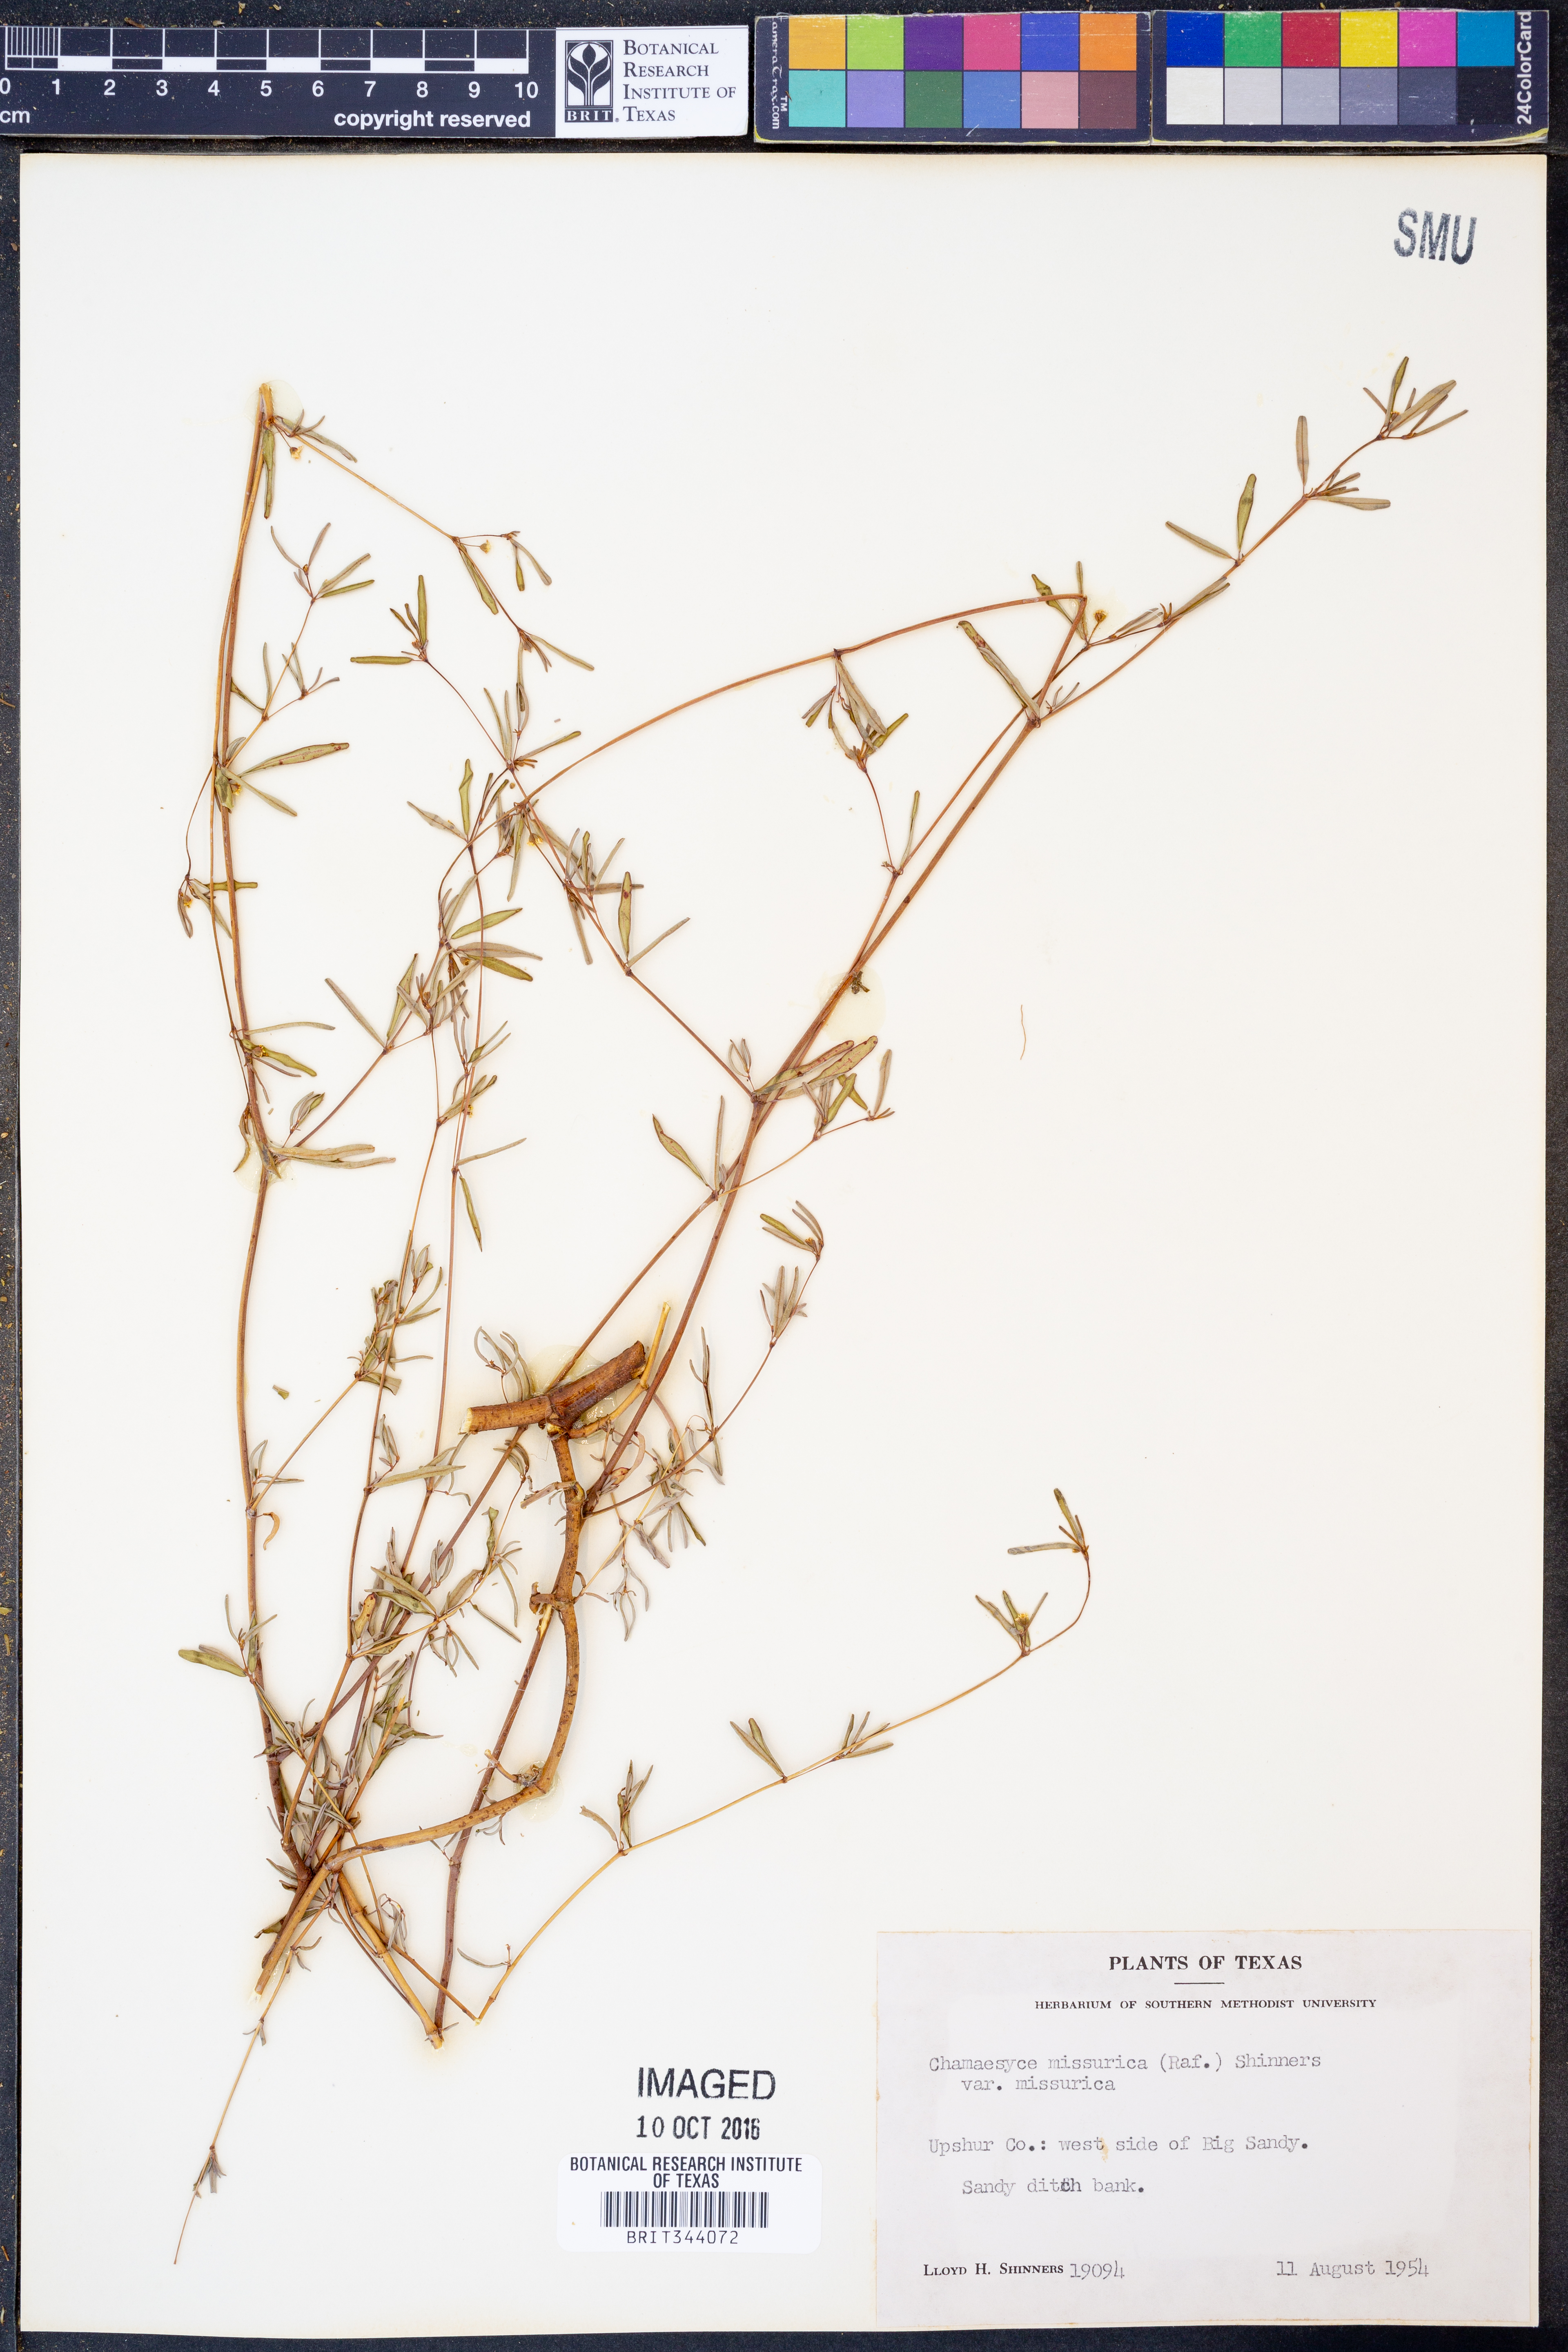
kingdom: Plantae
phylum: Tracheophyta
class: Magnoliopsida
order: Malpighiales
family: Euphorbiaceae
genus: Euphorbia
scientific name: Euphorbia missurica
